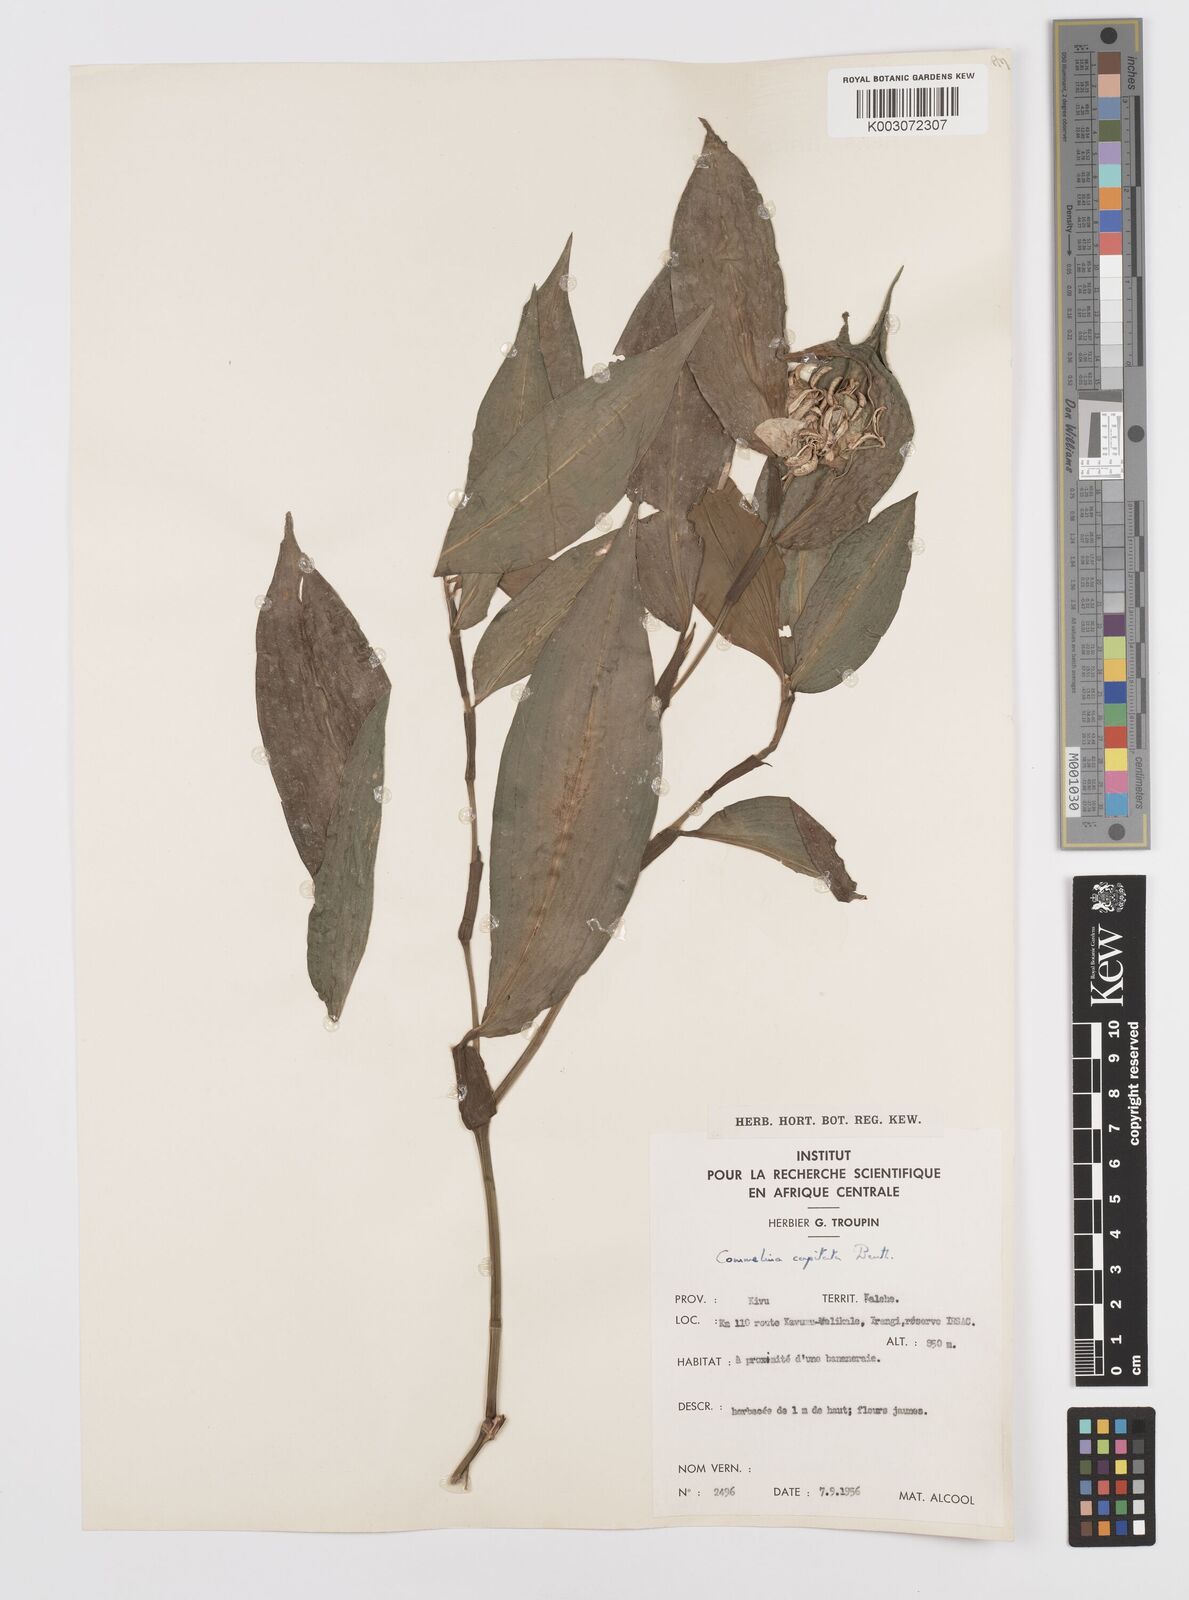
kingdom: Plantae
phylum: Tracheophyta
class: Liliopsida
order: Commelinales
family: Commelinaceae
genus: Commelina
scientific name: Commelina capitata
